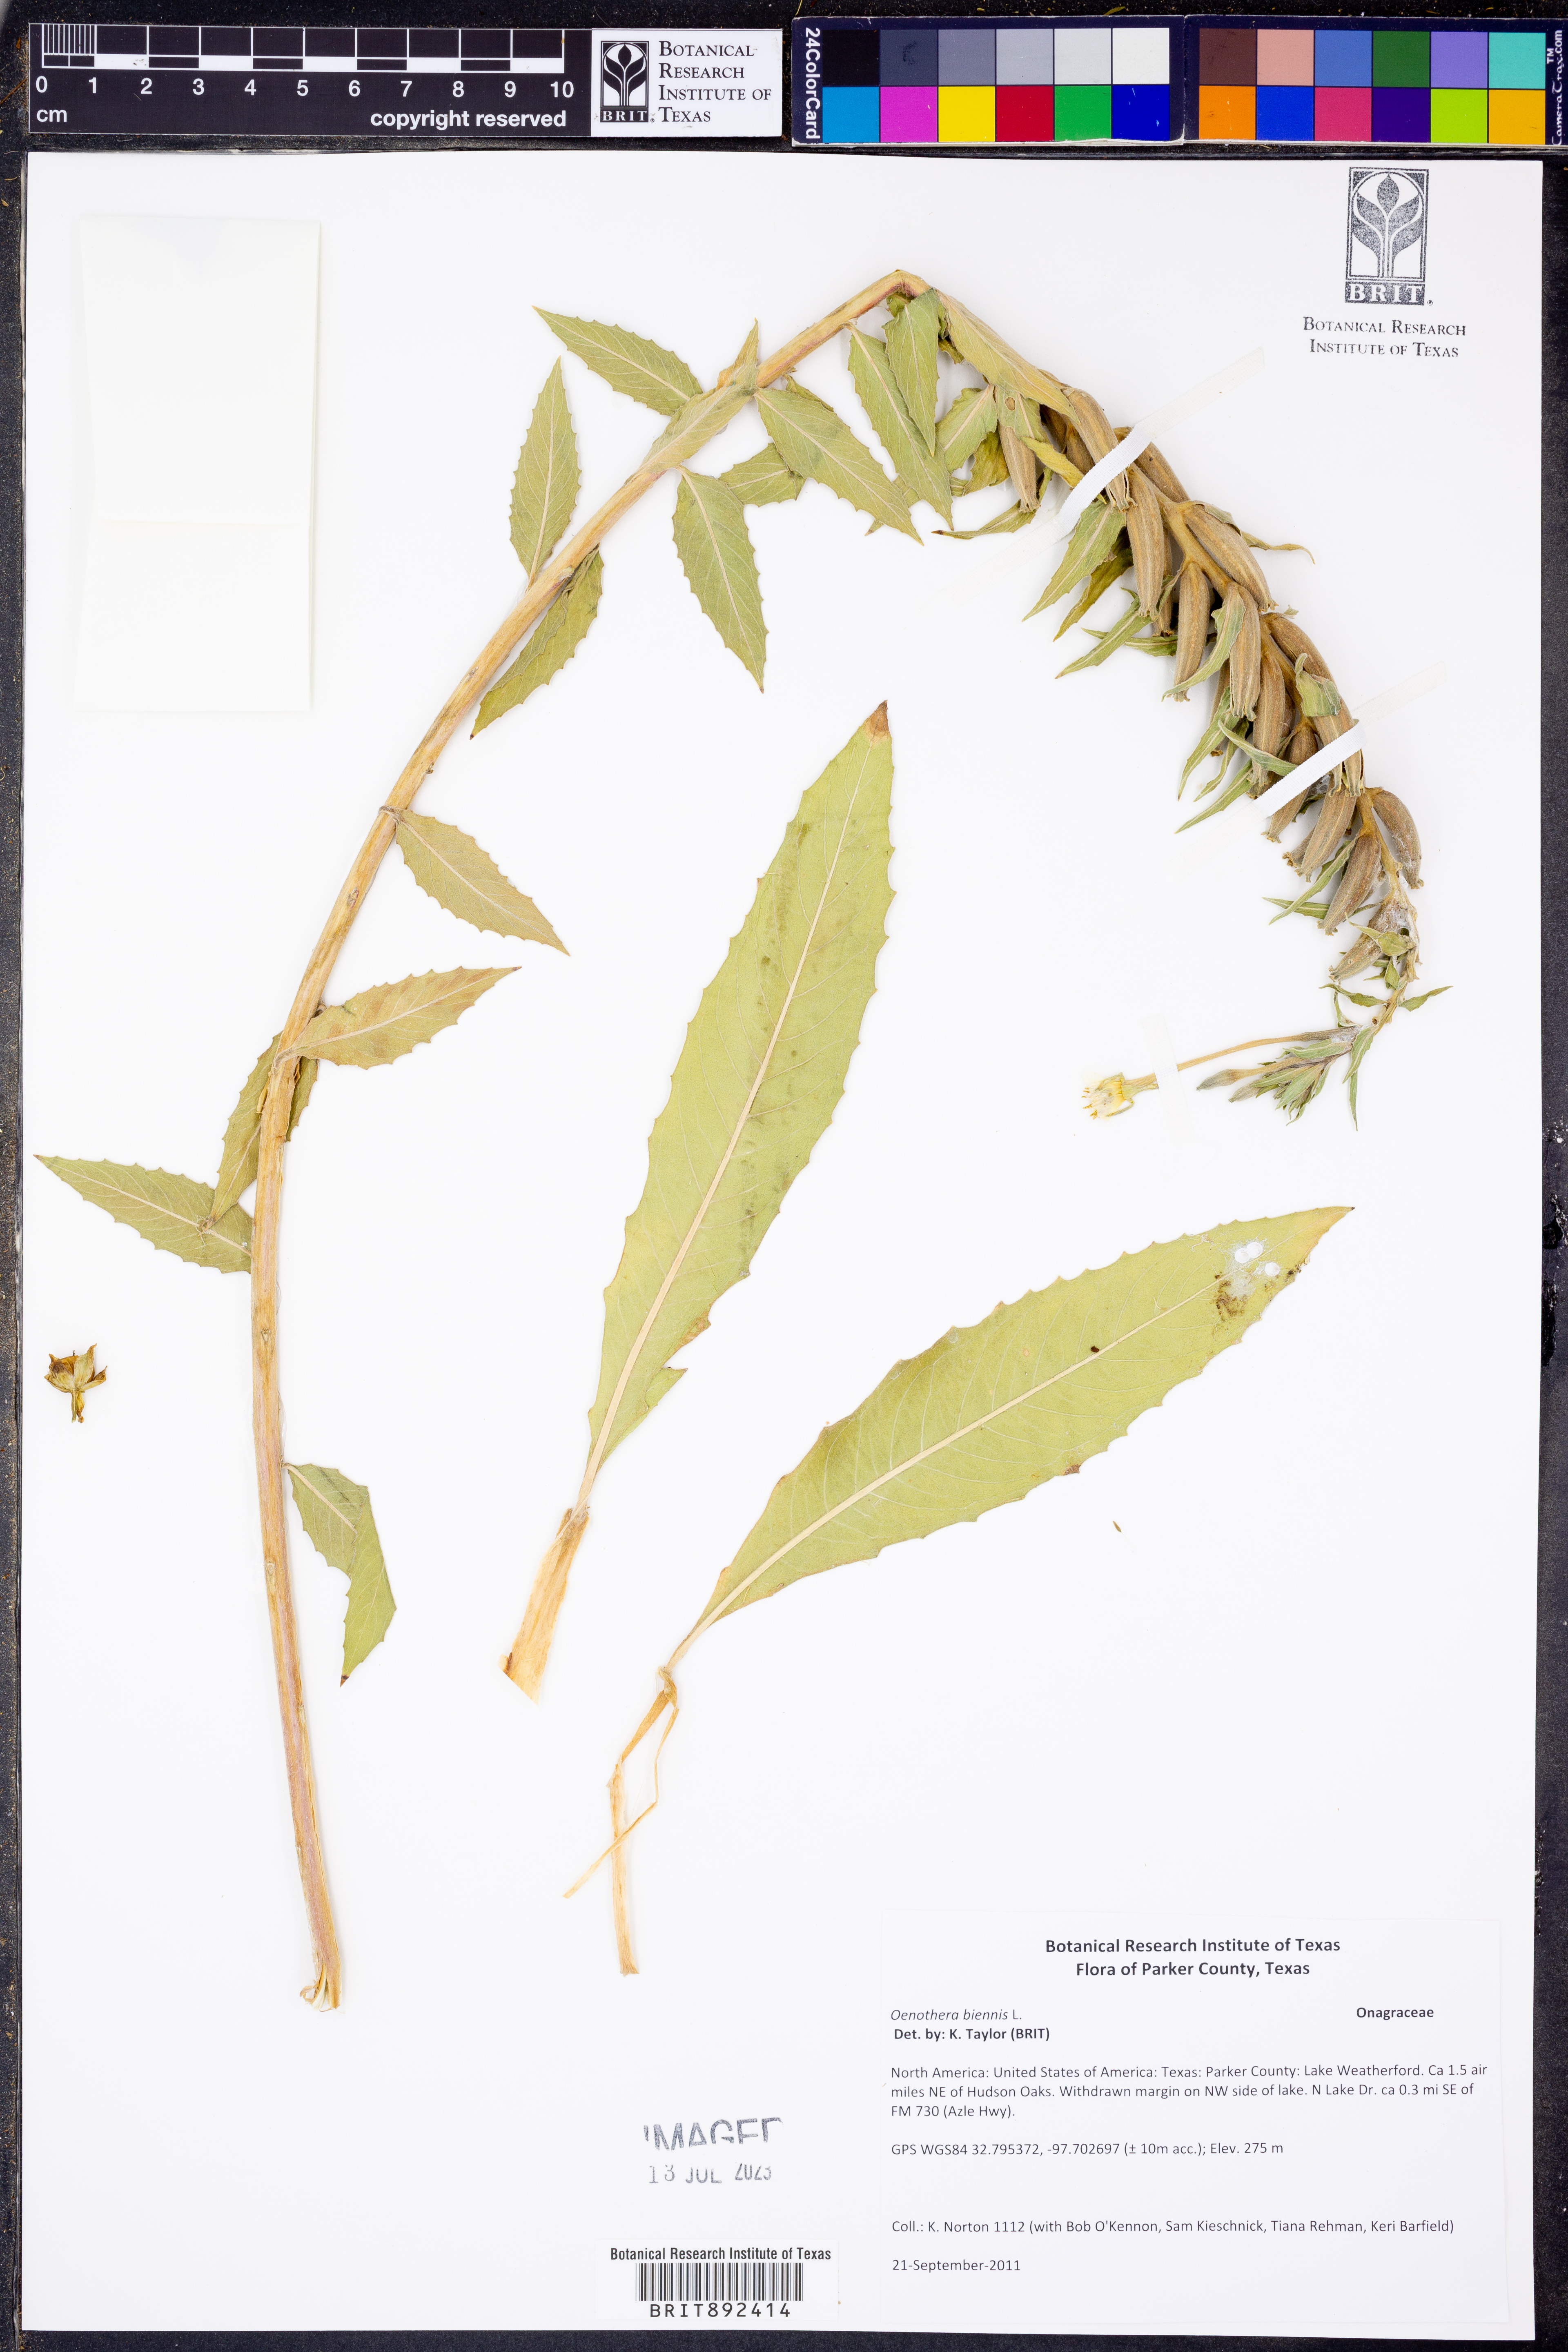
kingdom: Plantae
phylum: Tracheophyta
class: Magnoliopsida
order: Myrtales
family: Onagraceae
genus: Oenothera
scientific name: Oenothera biennis
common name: Common evening-primrose
